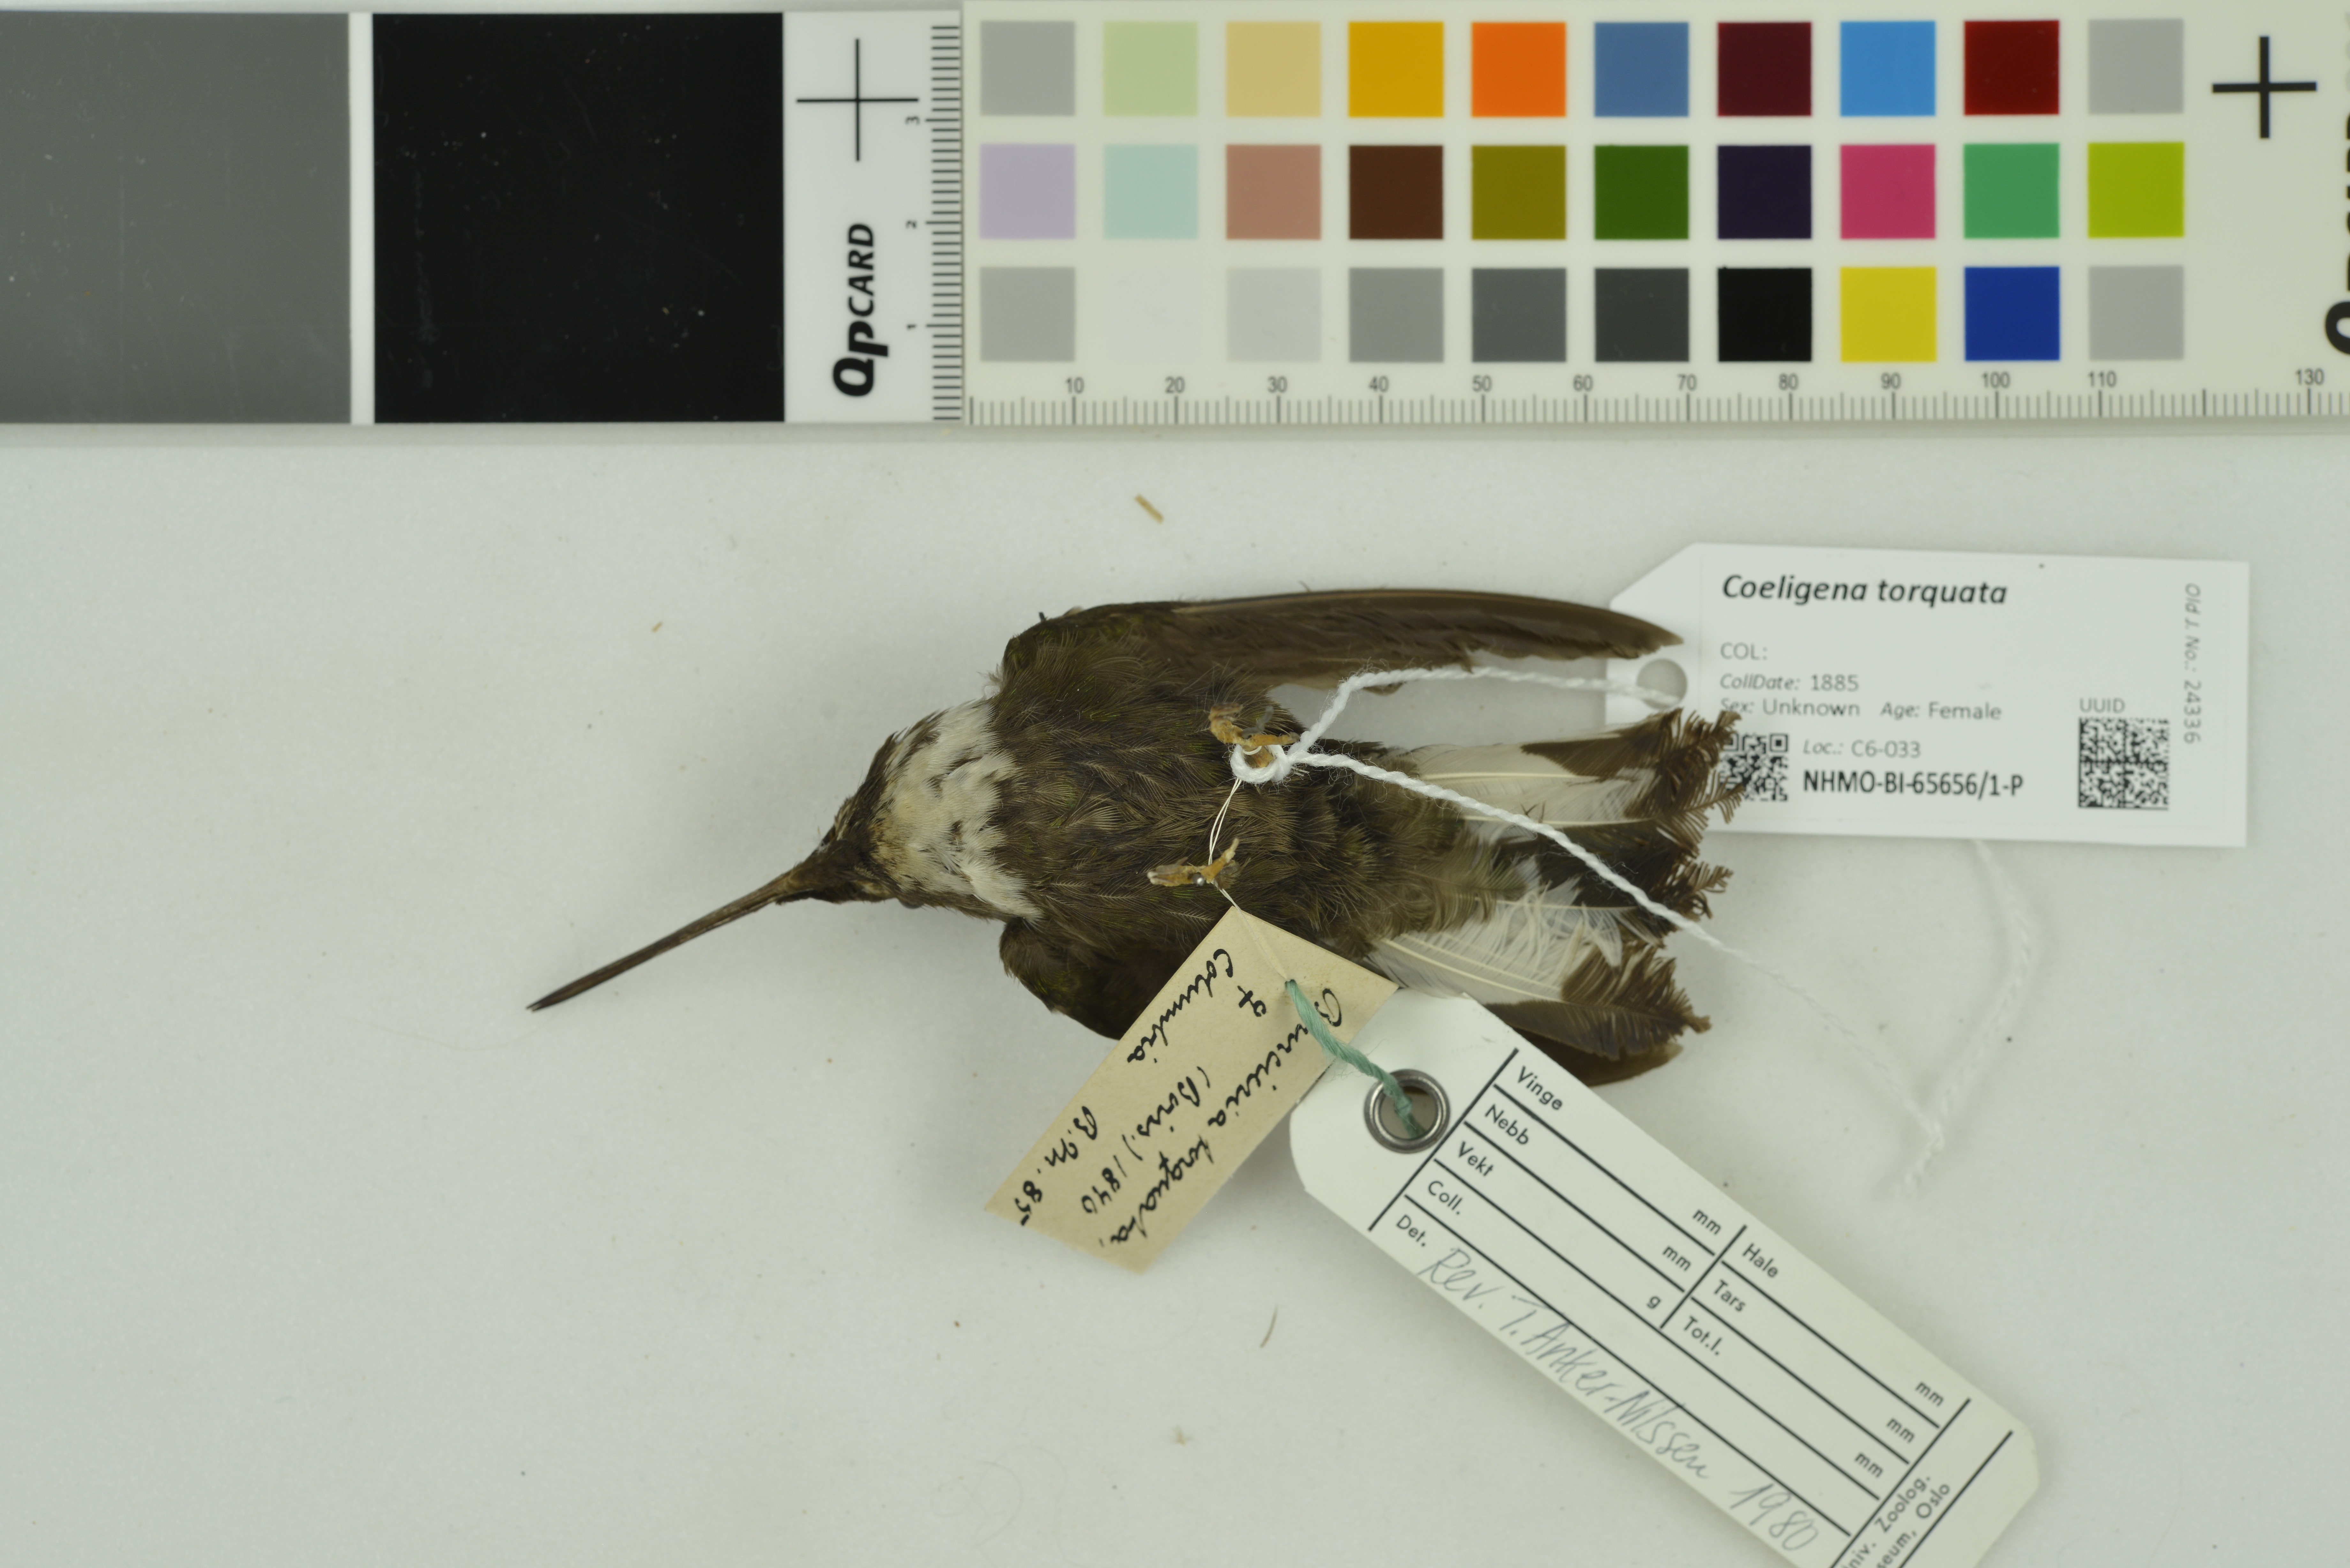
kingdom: Animalia
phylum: Chordata
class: Aves
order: Apodiformes
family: Trochilidae
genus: Coeligena
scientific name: Coeligena torquata
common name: Collared inca
